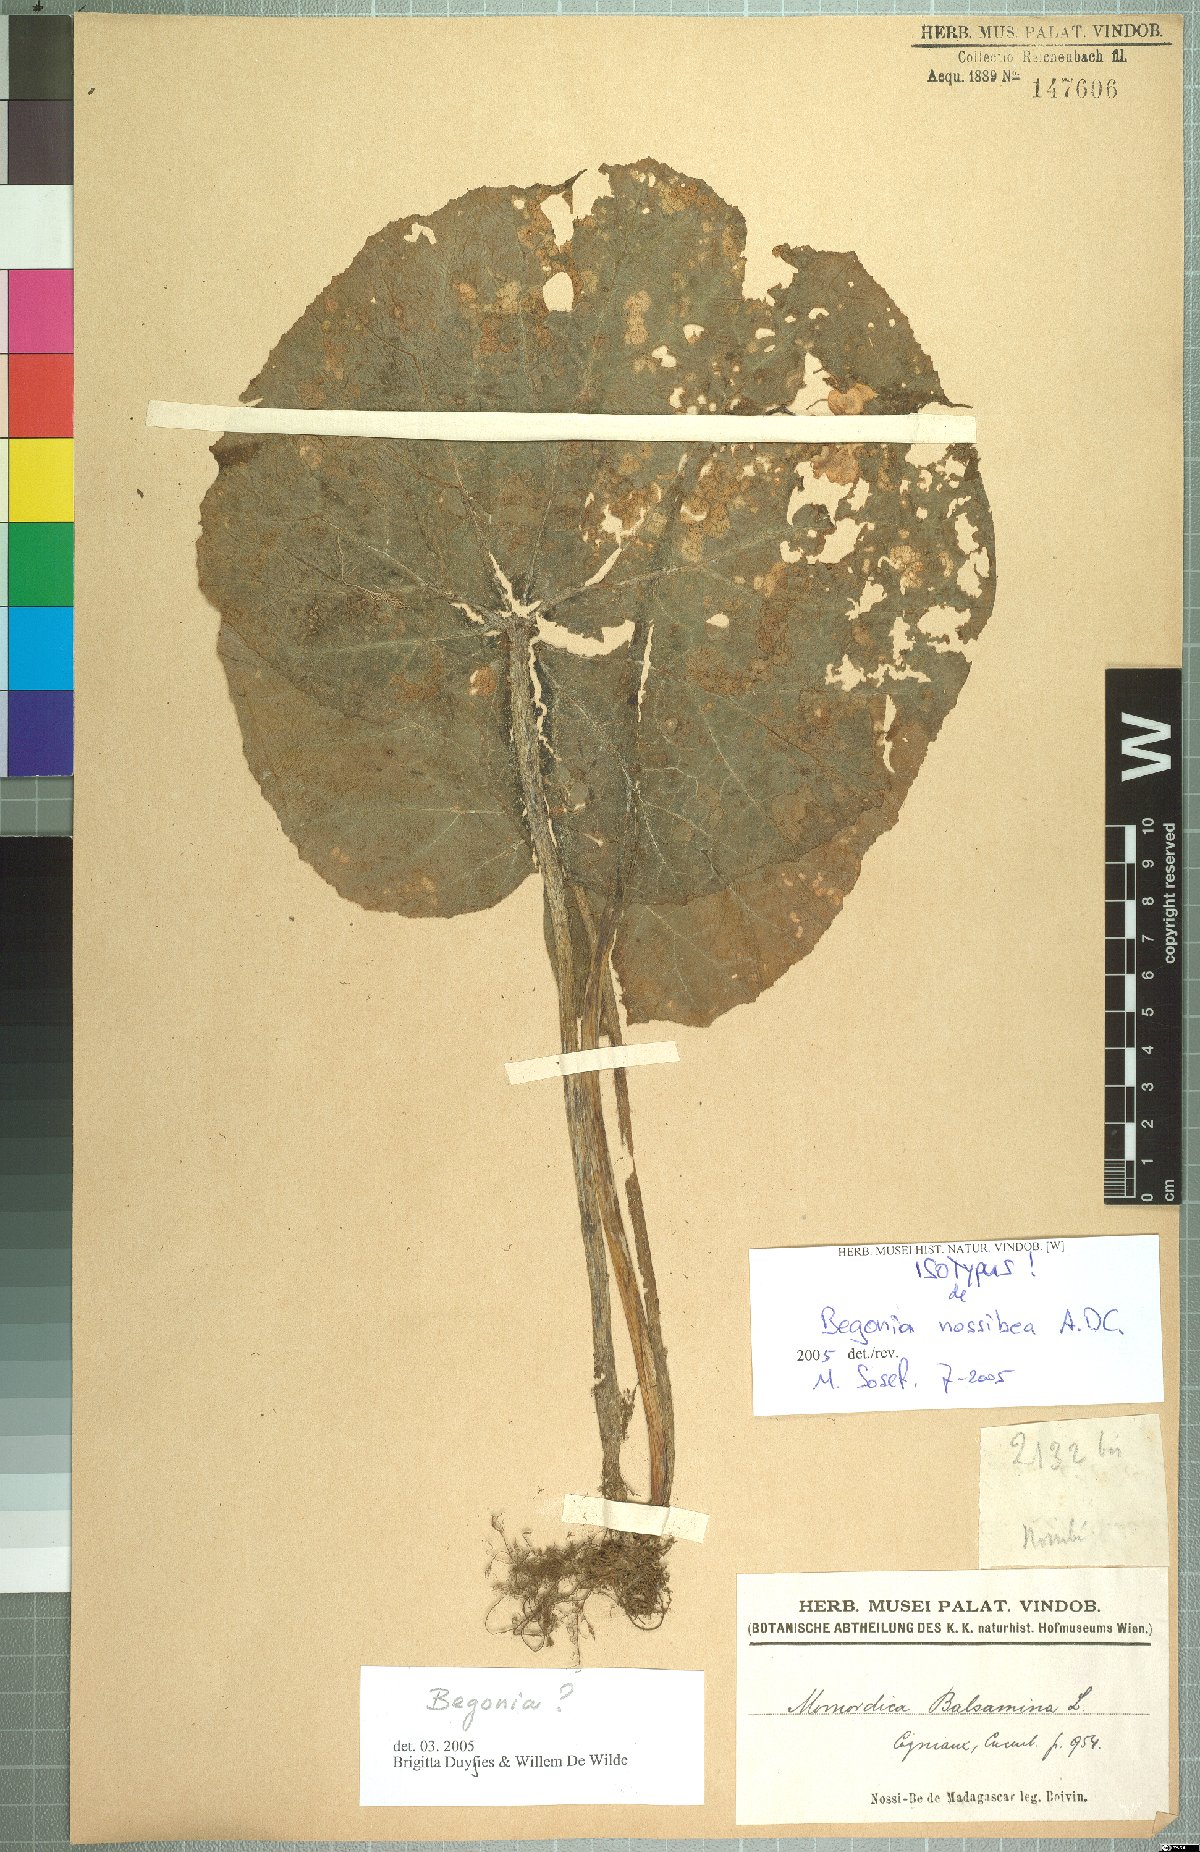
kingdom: Plantae
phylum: Tracheophyta
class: Magnoliopsida
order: Cucurbitales
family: Begoniaceae
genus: Begonia
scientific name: Begonia boiviniana
